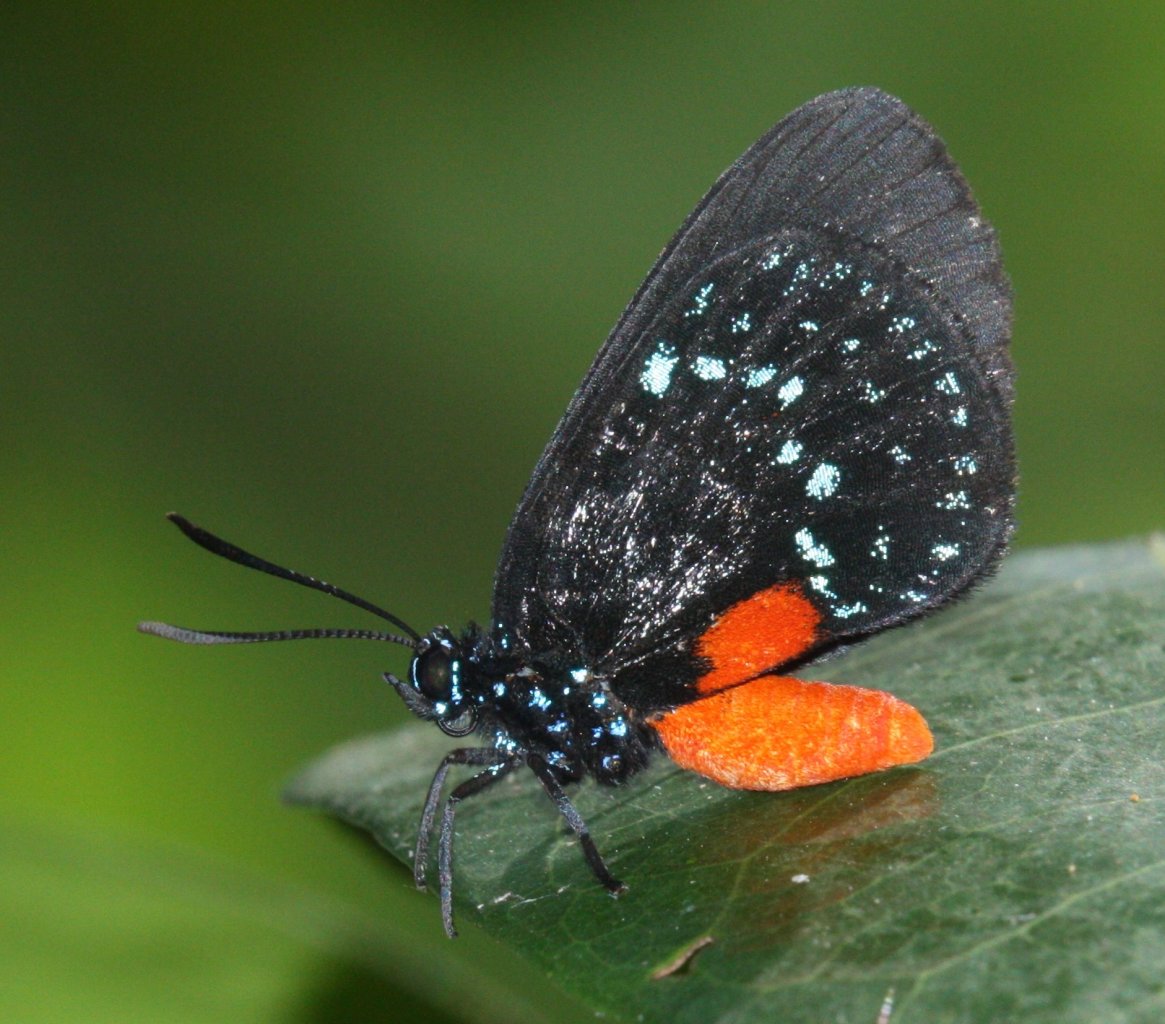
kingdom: Animalia
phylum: Arthropoda
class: Insecta
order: Lepidoptera
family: Lycaenidae
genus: Eumaeus
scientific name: Eumaeus atala
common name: Atala
